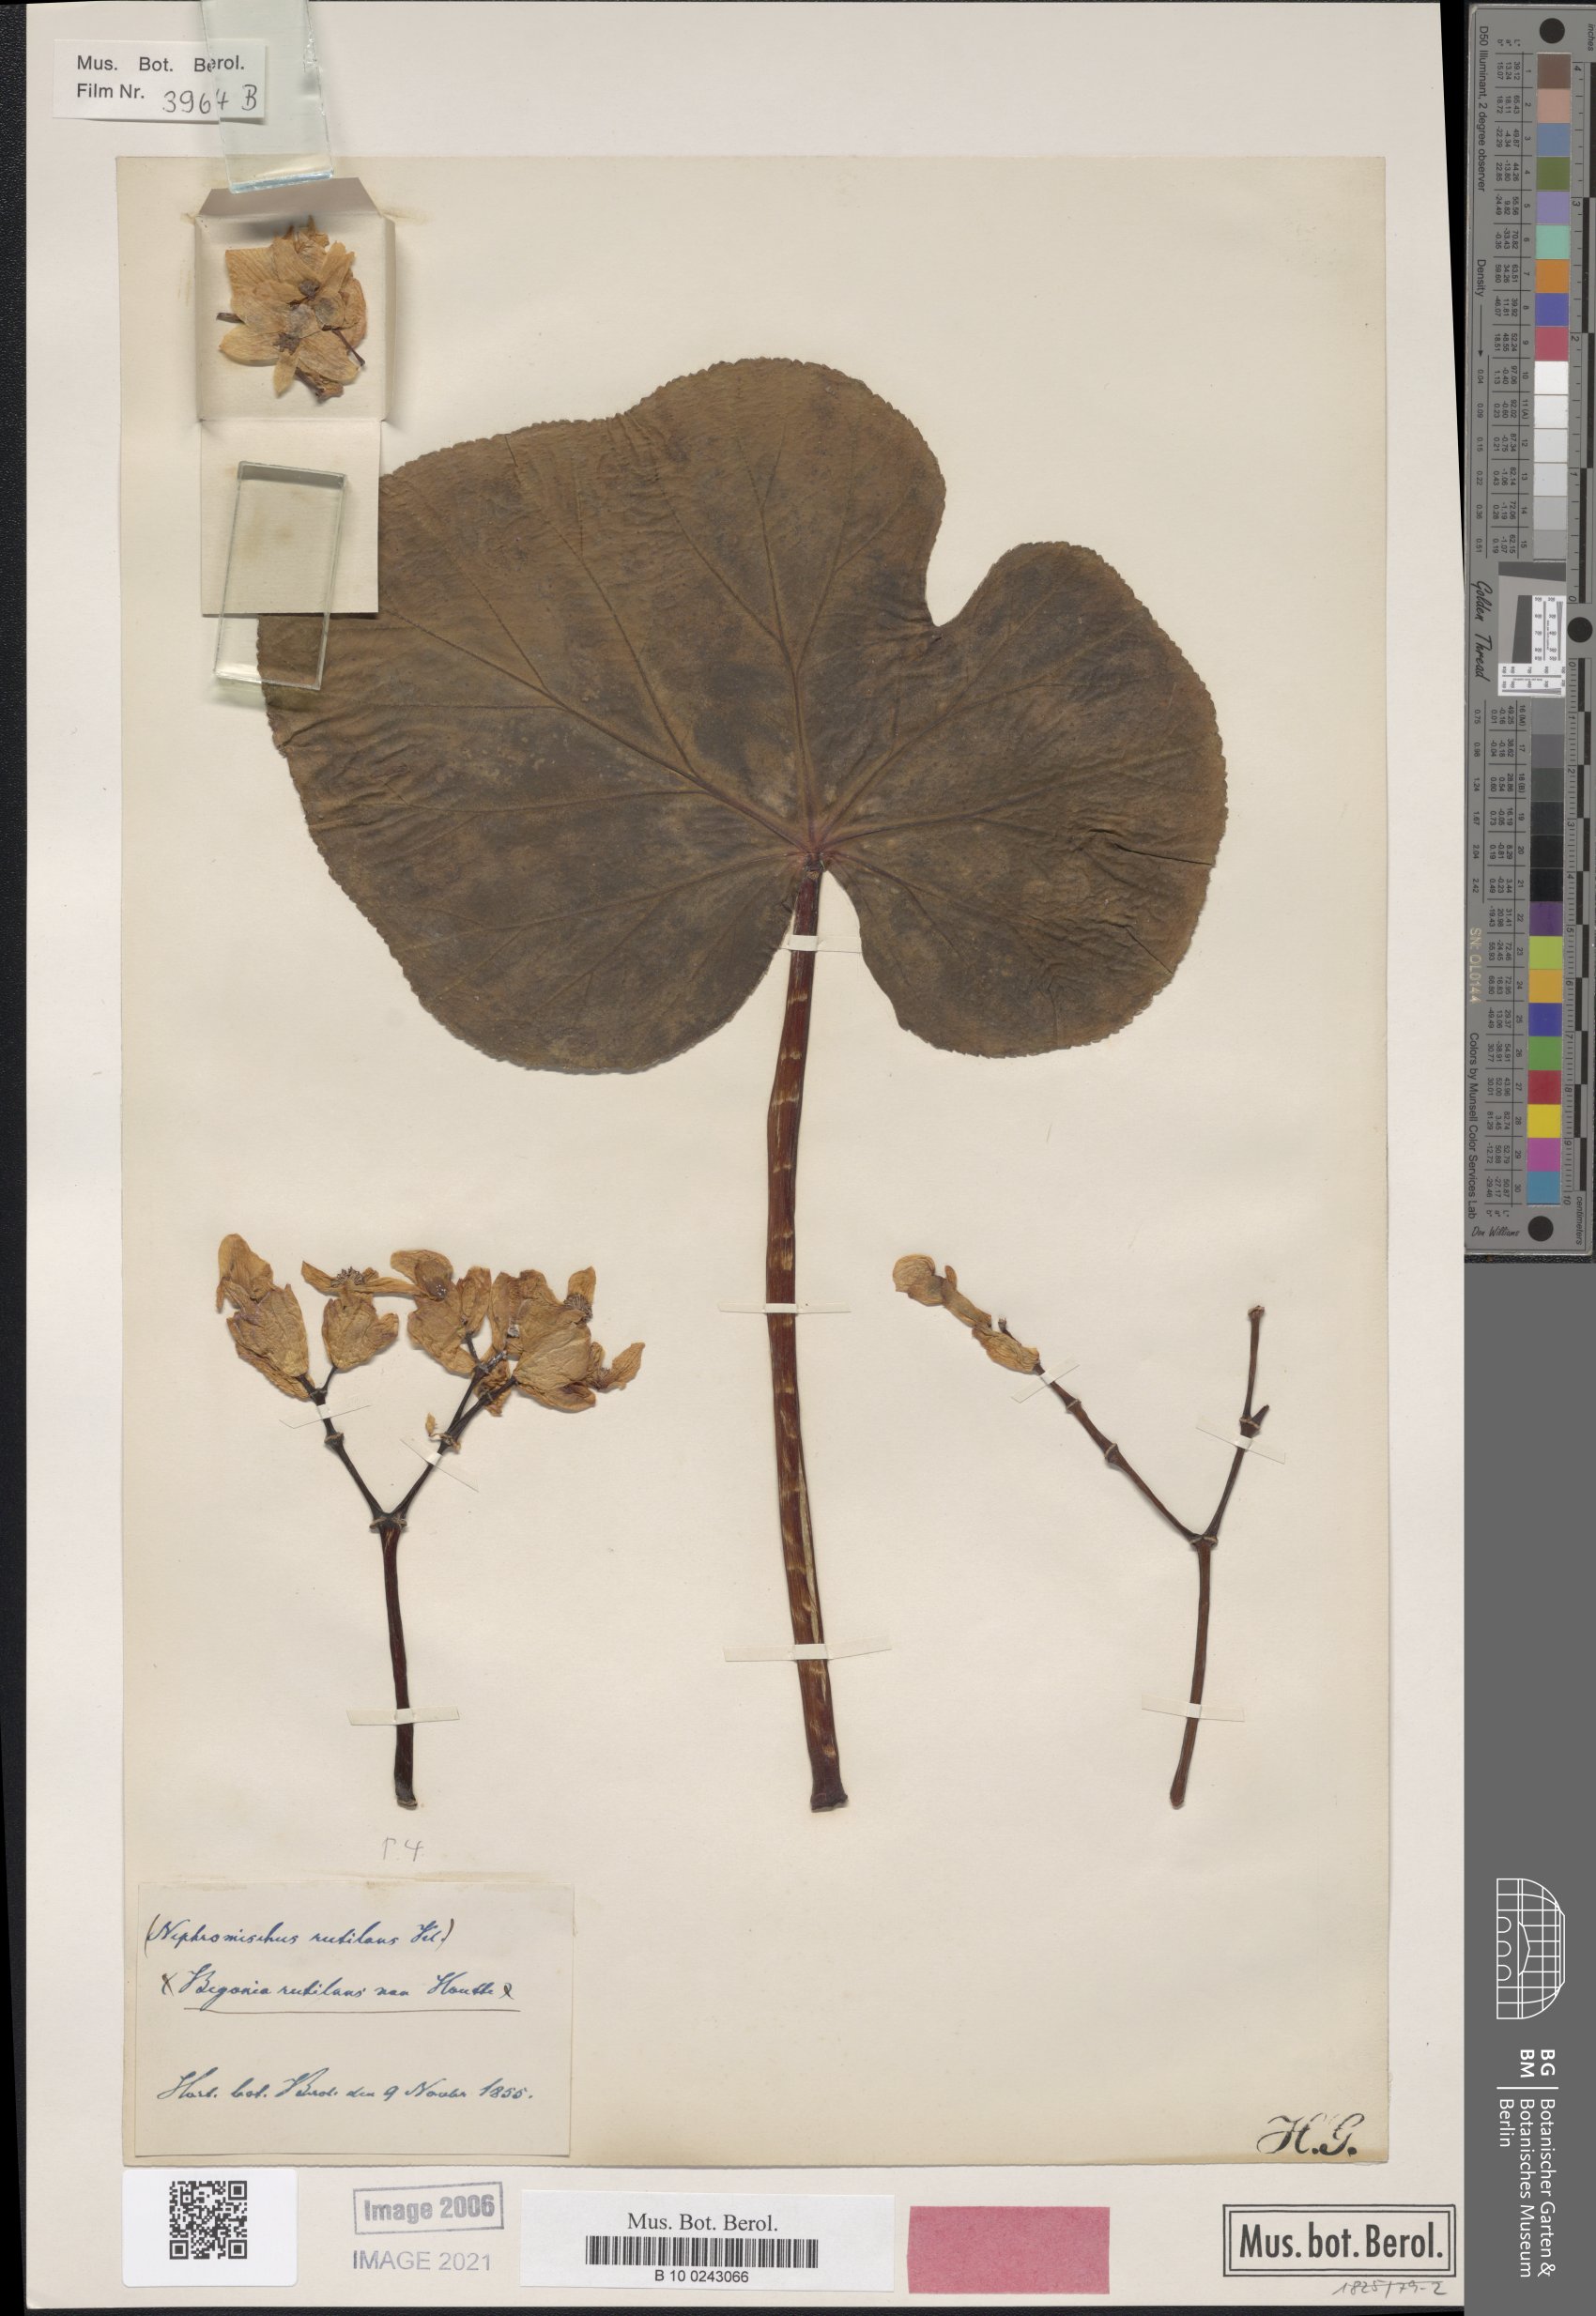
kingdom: Plantae
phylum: Tracheophyta
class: Magnoliopsida
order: Cucurbitales
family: Begoniaceae
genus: Begonia
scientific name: Begonia rutilans
